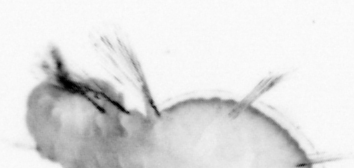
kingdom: Animalia
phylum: Annelida
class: Polychaeta
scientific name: Polychaeta
